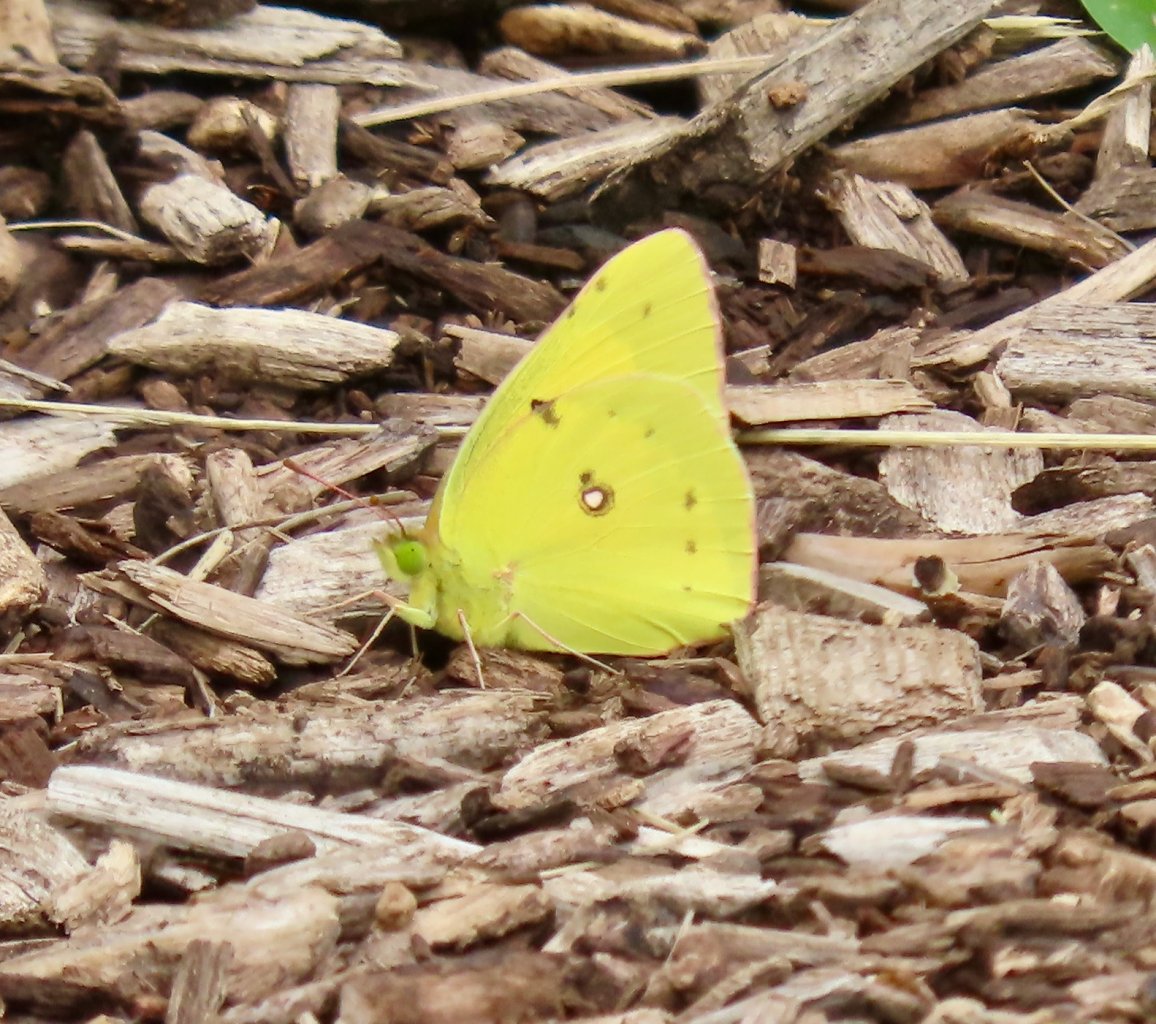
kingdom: Animalia
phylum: Arthropoda
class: Insecta
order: Lepidoptera
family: Pieridae
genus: Colias
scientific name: Colias
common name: Clouded Yellows
